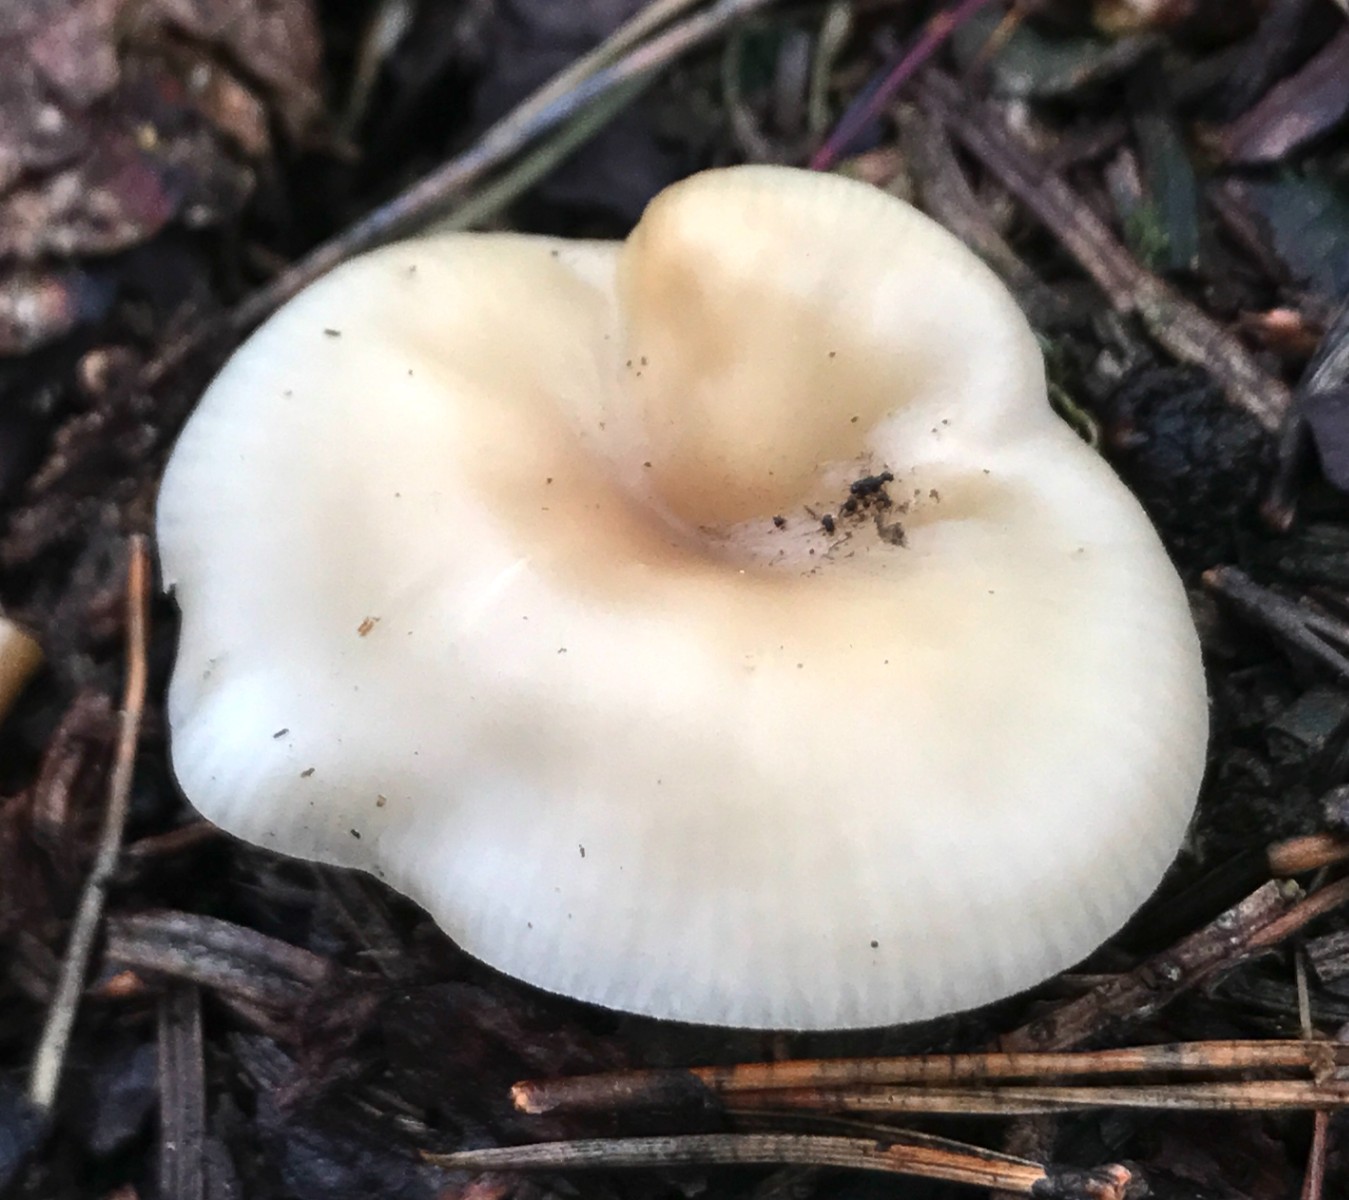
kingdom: Fungi
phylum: Basidiomycota
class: Agaricomycetes
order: Agaricales
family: Tricholomataceae
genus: Clitocybe
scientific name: Clitocybe fragrans
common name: vellugtende tragthat
